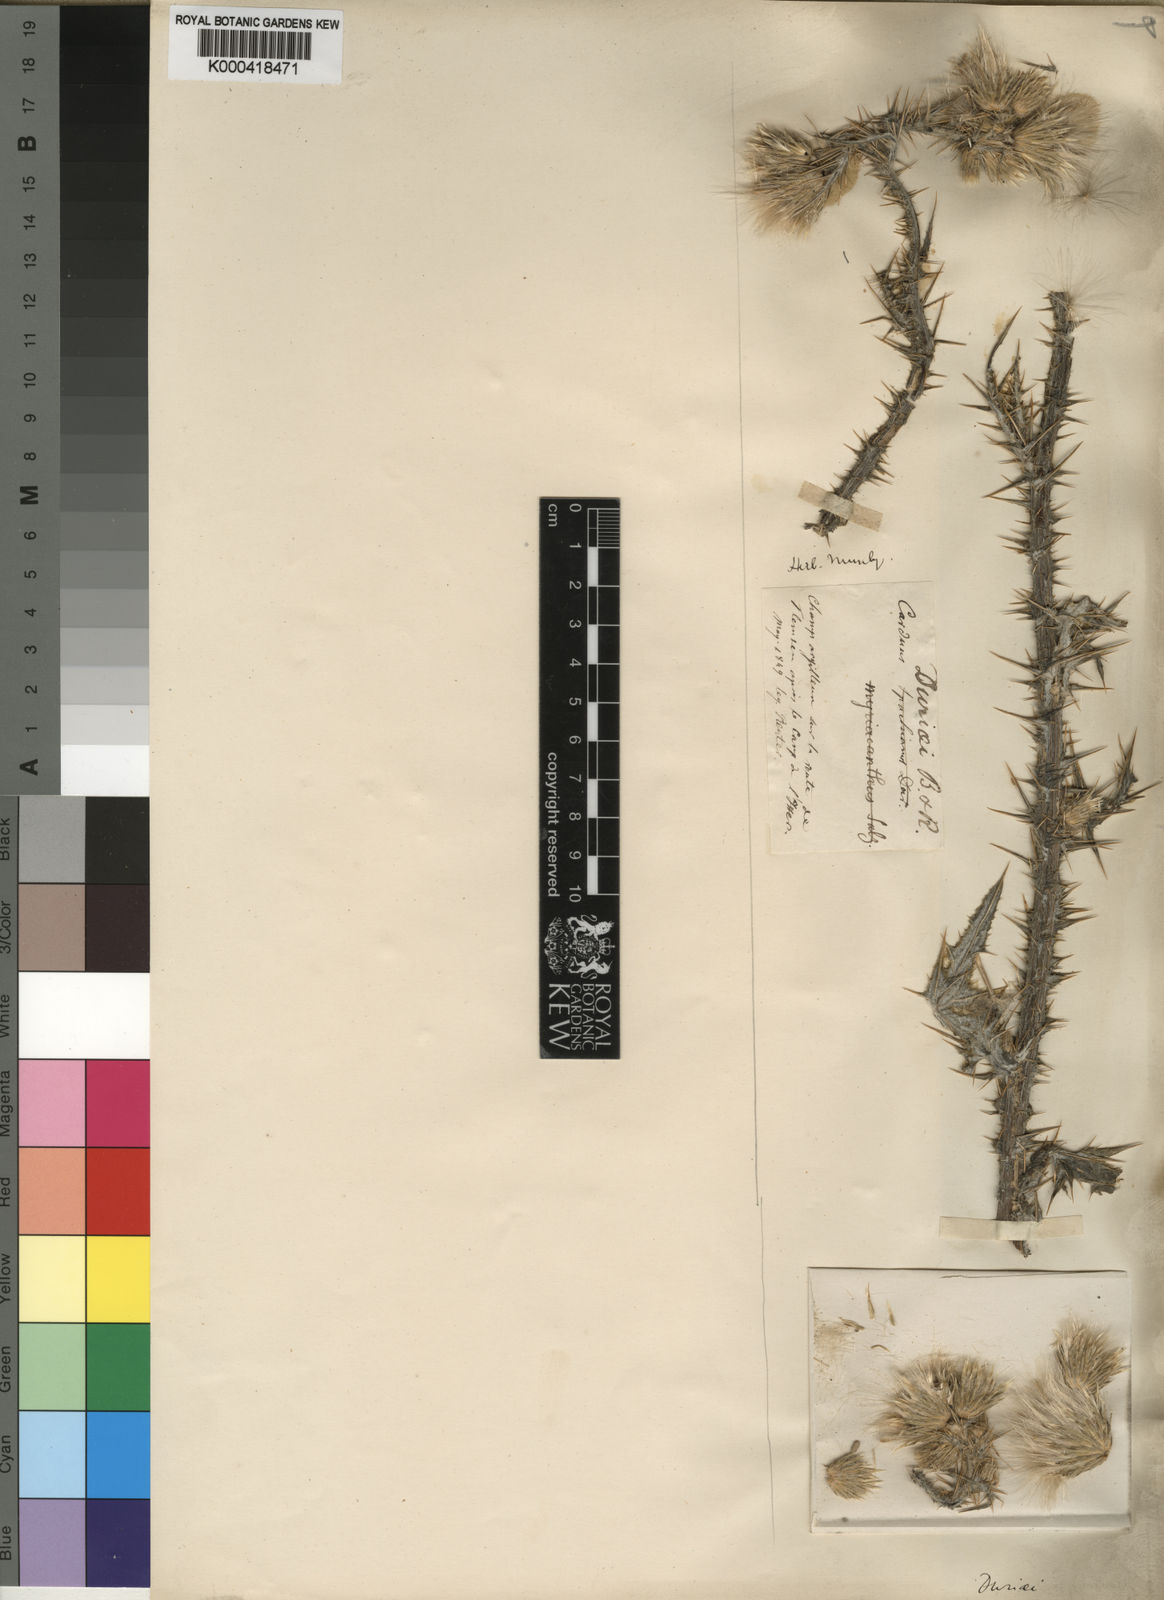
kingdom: Plantae
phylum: Tracheophyta
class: Magnoliopsida
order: Asterales
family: Asteraceae
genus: Carduus
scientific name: Carduus spachianus
